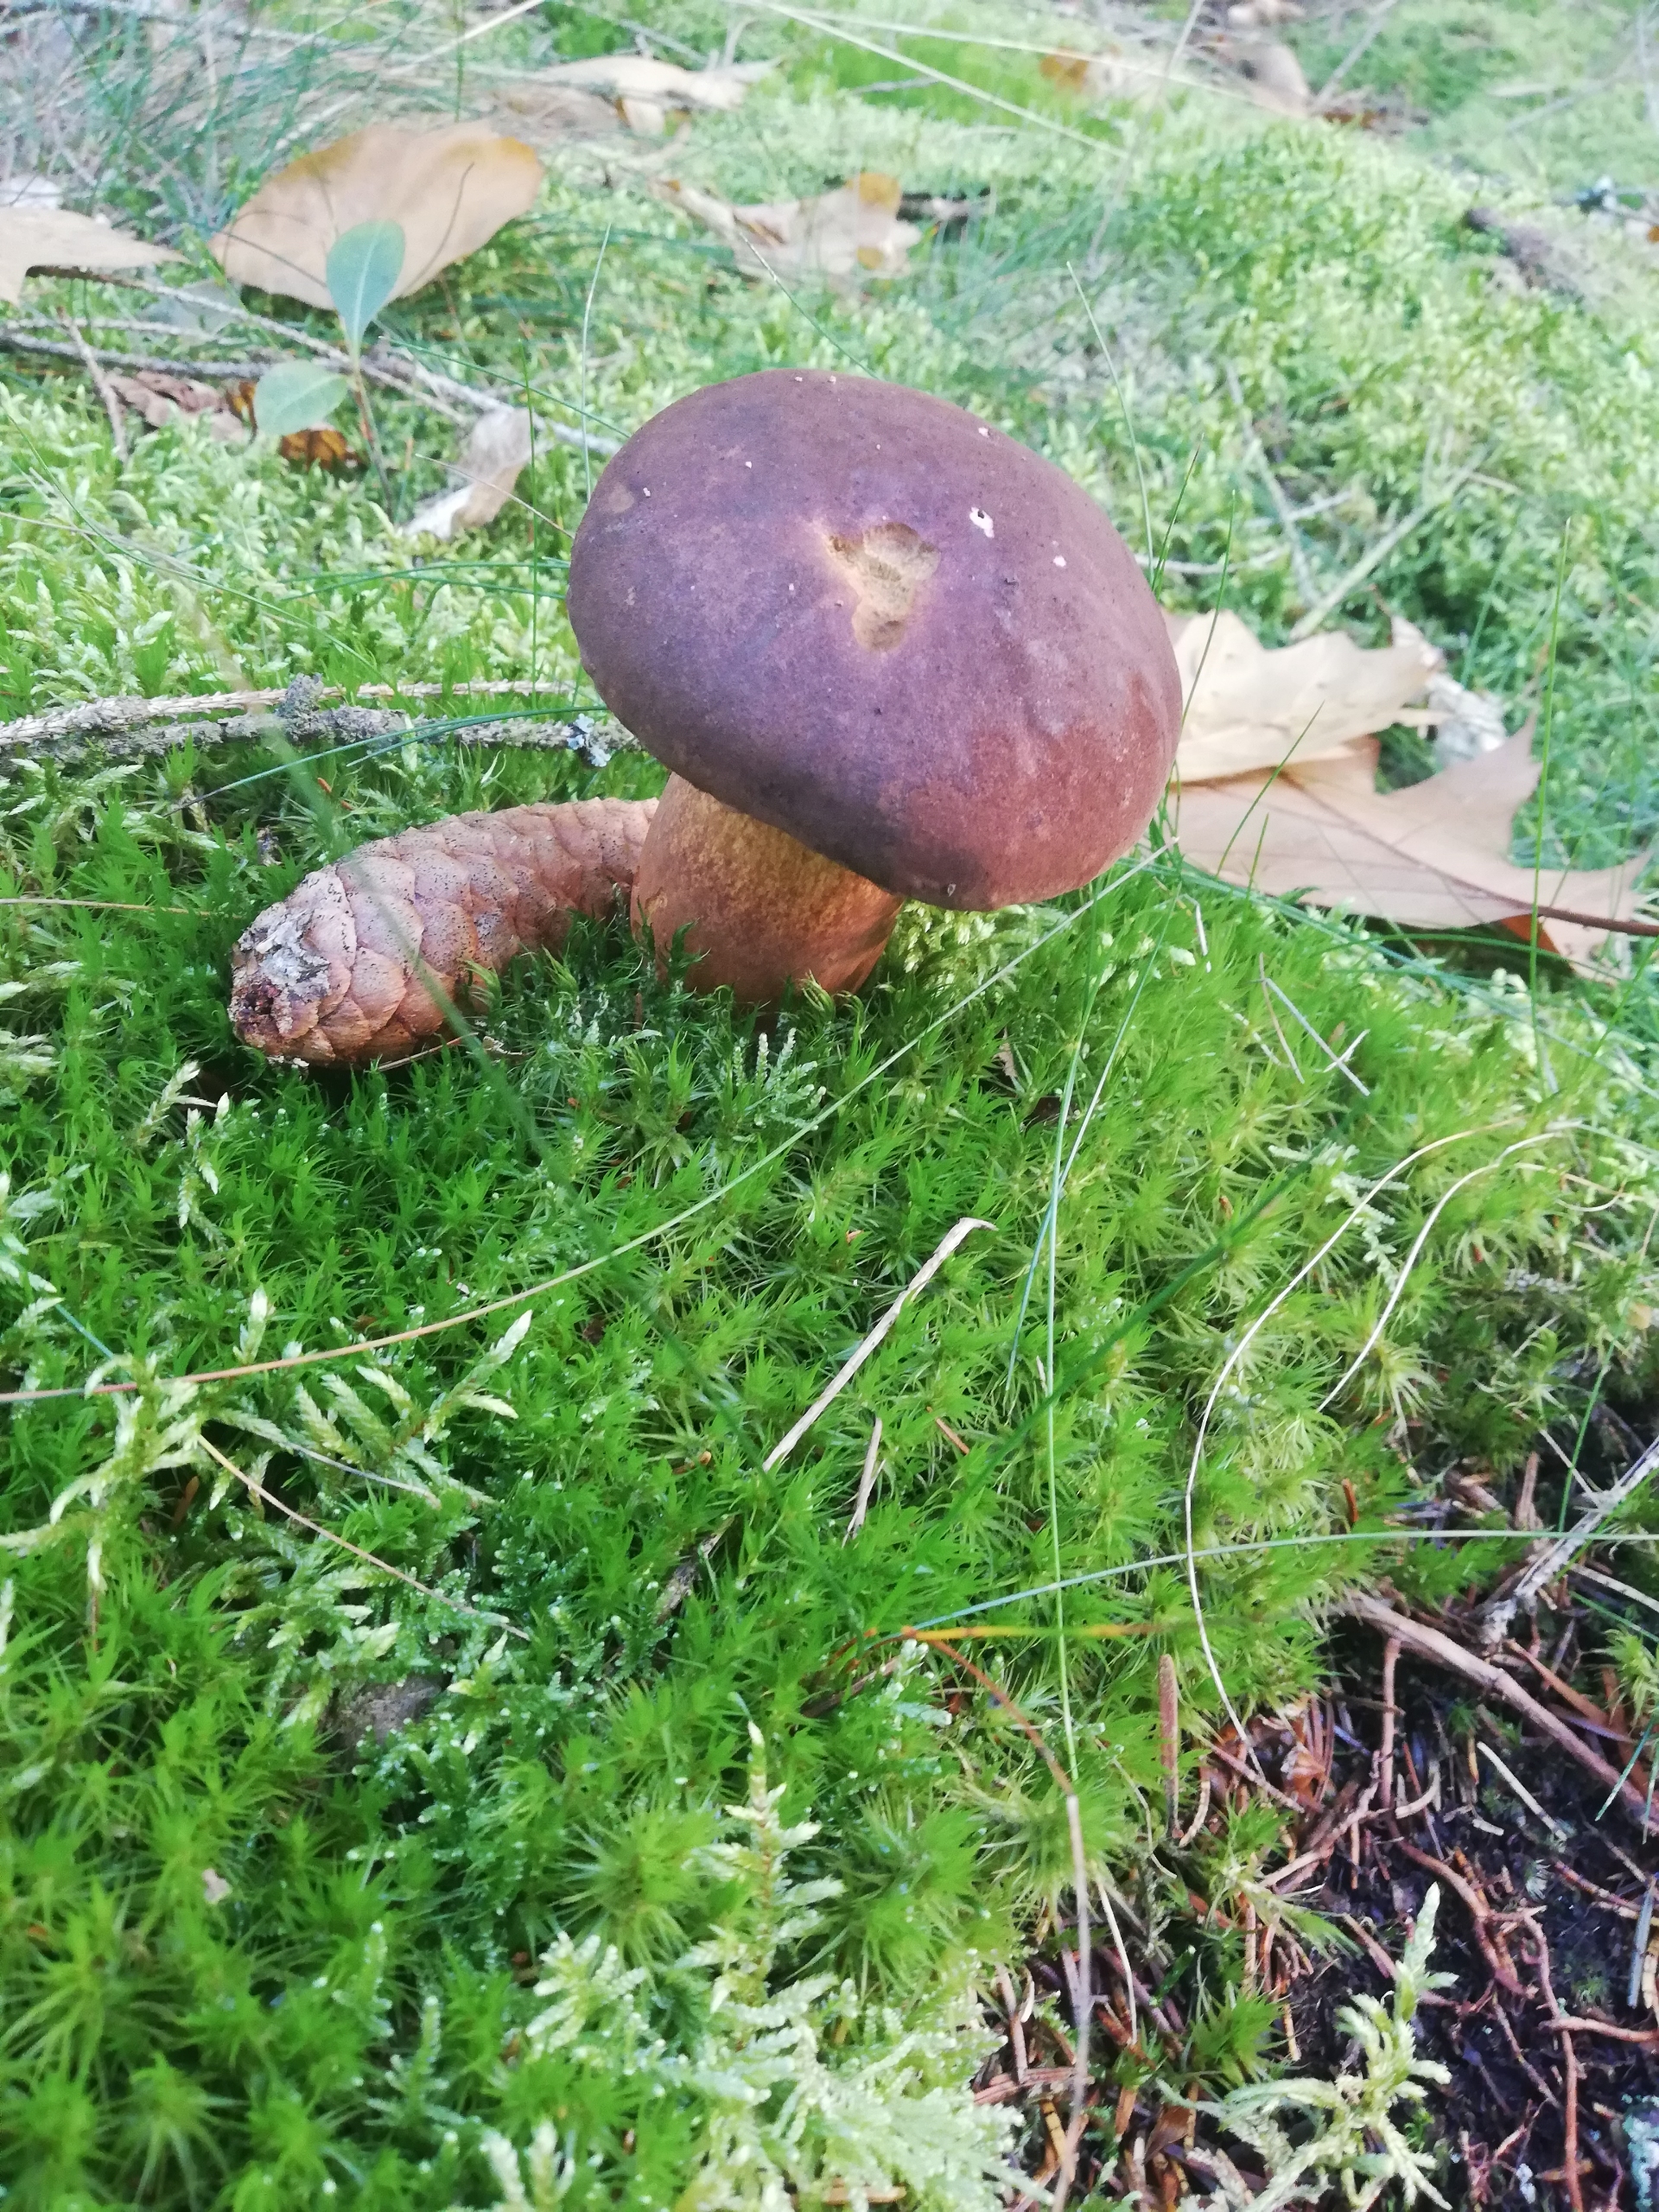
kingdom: Fungi
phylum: Basidiomycota
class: Agaricomycetes
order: Boletales
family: Boletaceae
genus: Imleria
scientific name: Imleria badia
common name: Brunstokket rørhat
